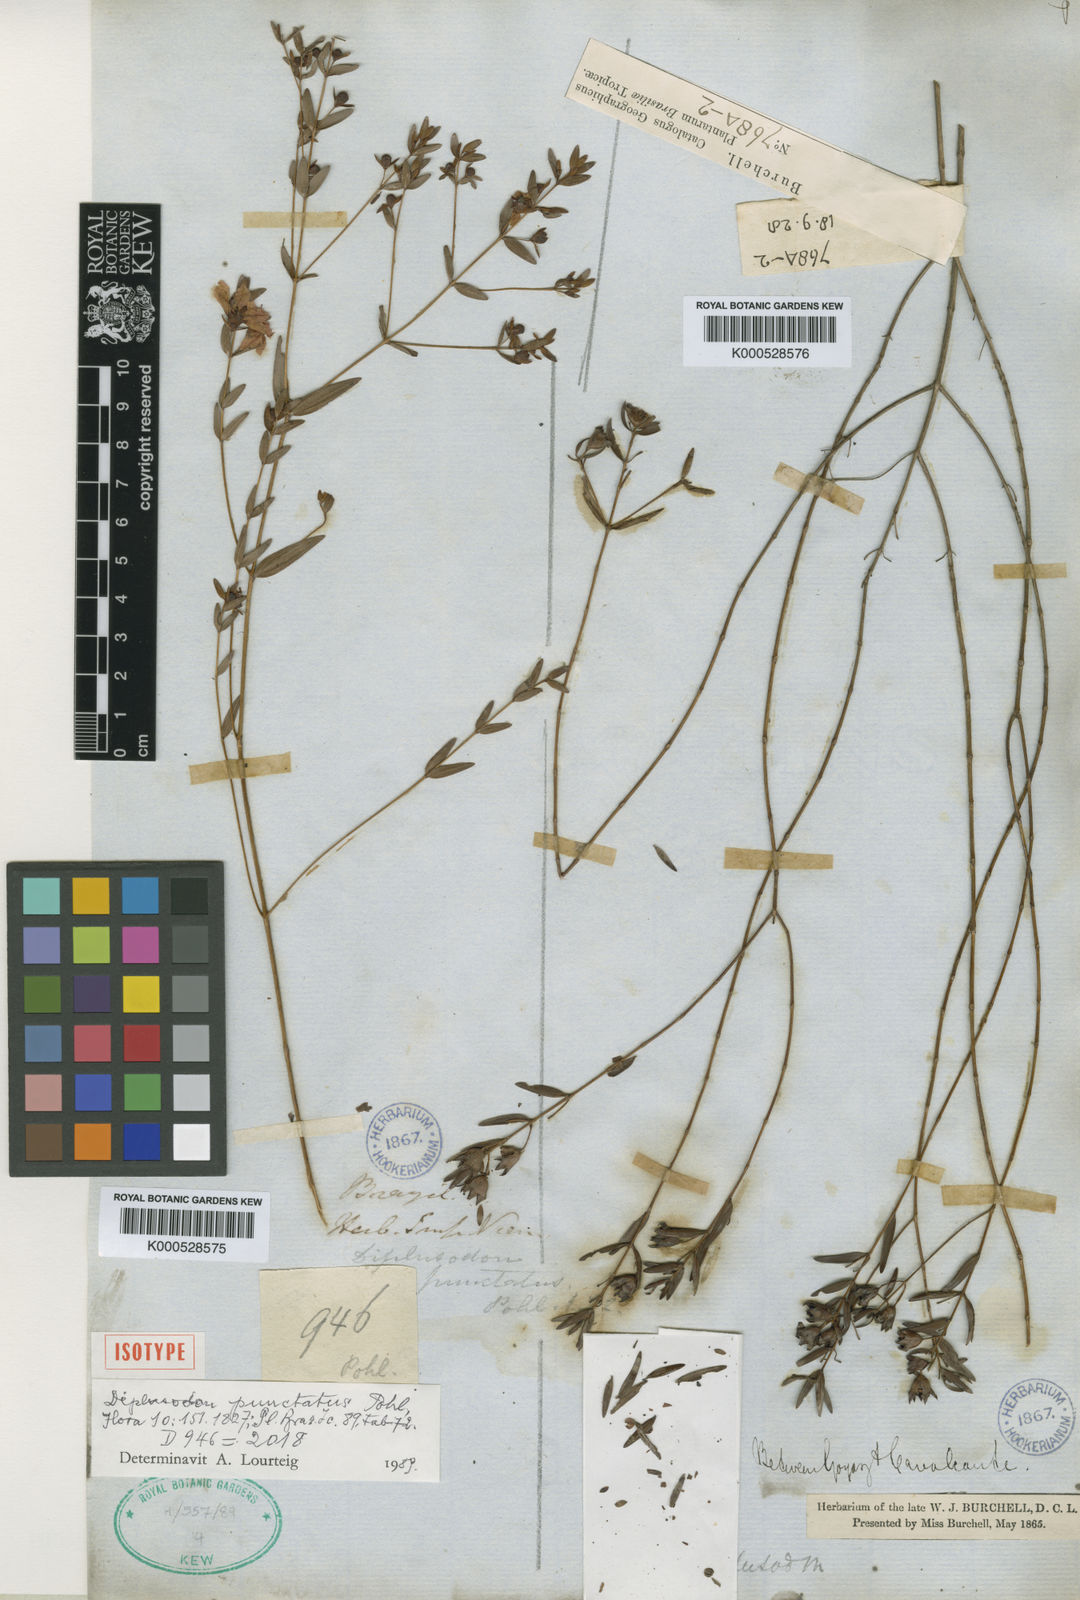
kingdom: Plantae
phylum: Tracheophyta
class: Magnoliopsida
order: Myrtales
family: Lythraceae
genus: Diplusodon
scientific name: Diplusodon punctatus
